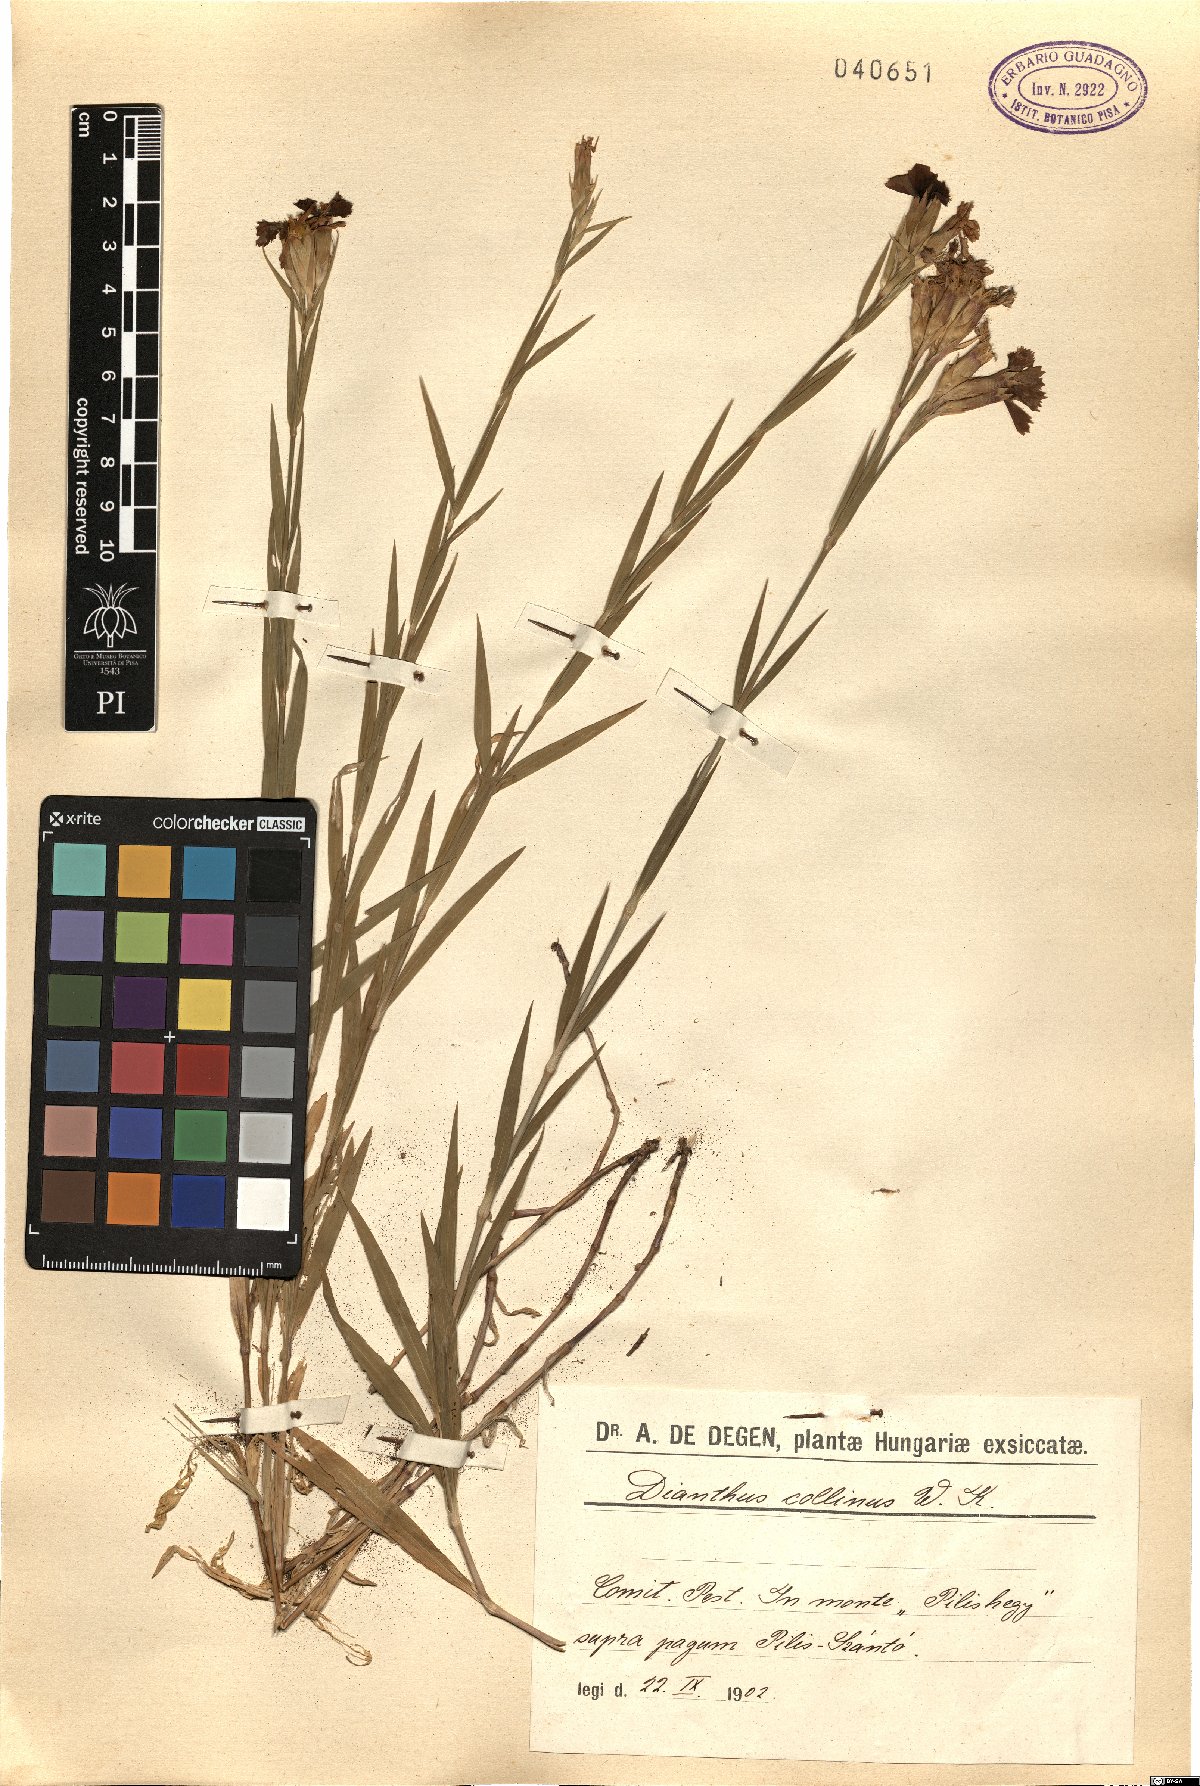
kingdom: Plantae
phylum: Tracheophyta
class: Magnoliopsida
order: Caryophyllales
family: Caryophyllaceae
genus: Dianthus
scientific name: Dianthus collinus
